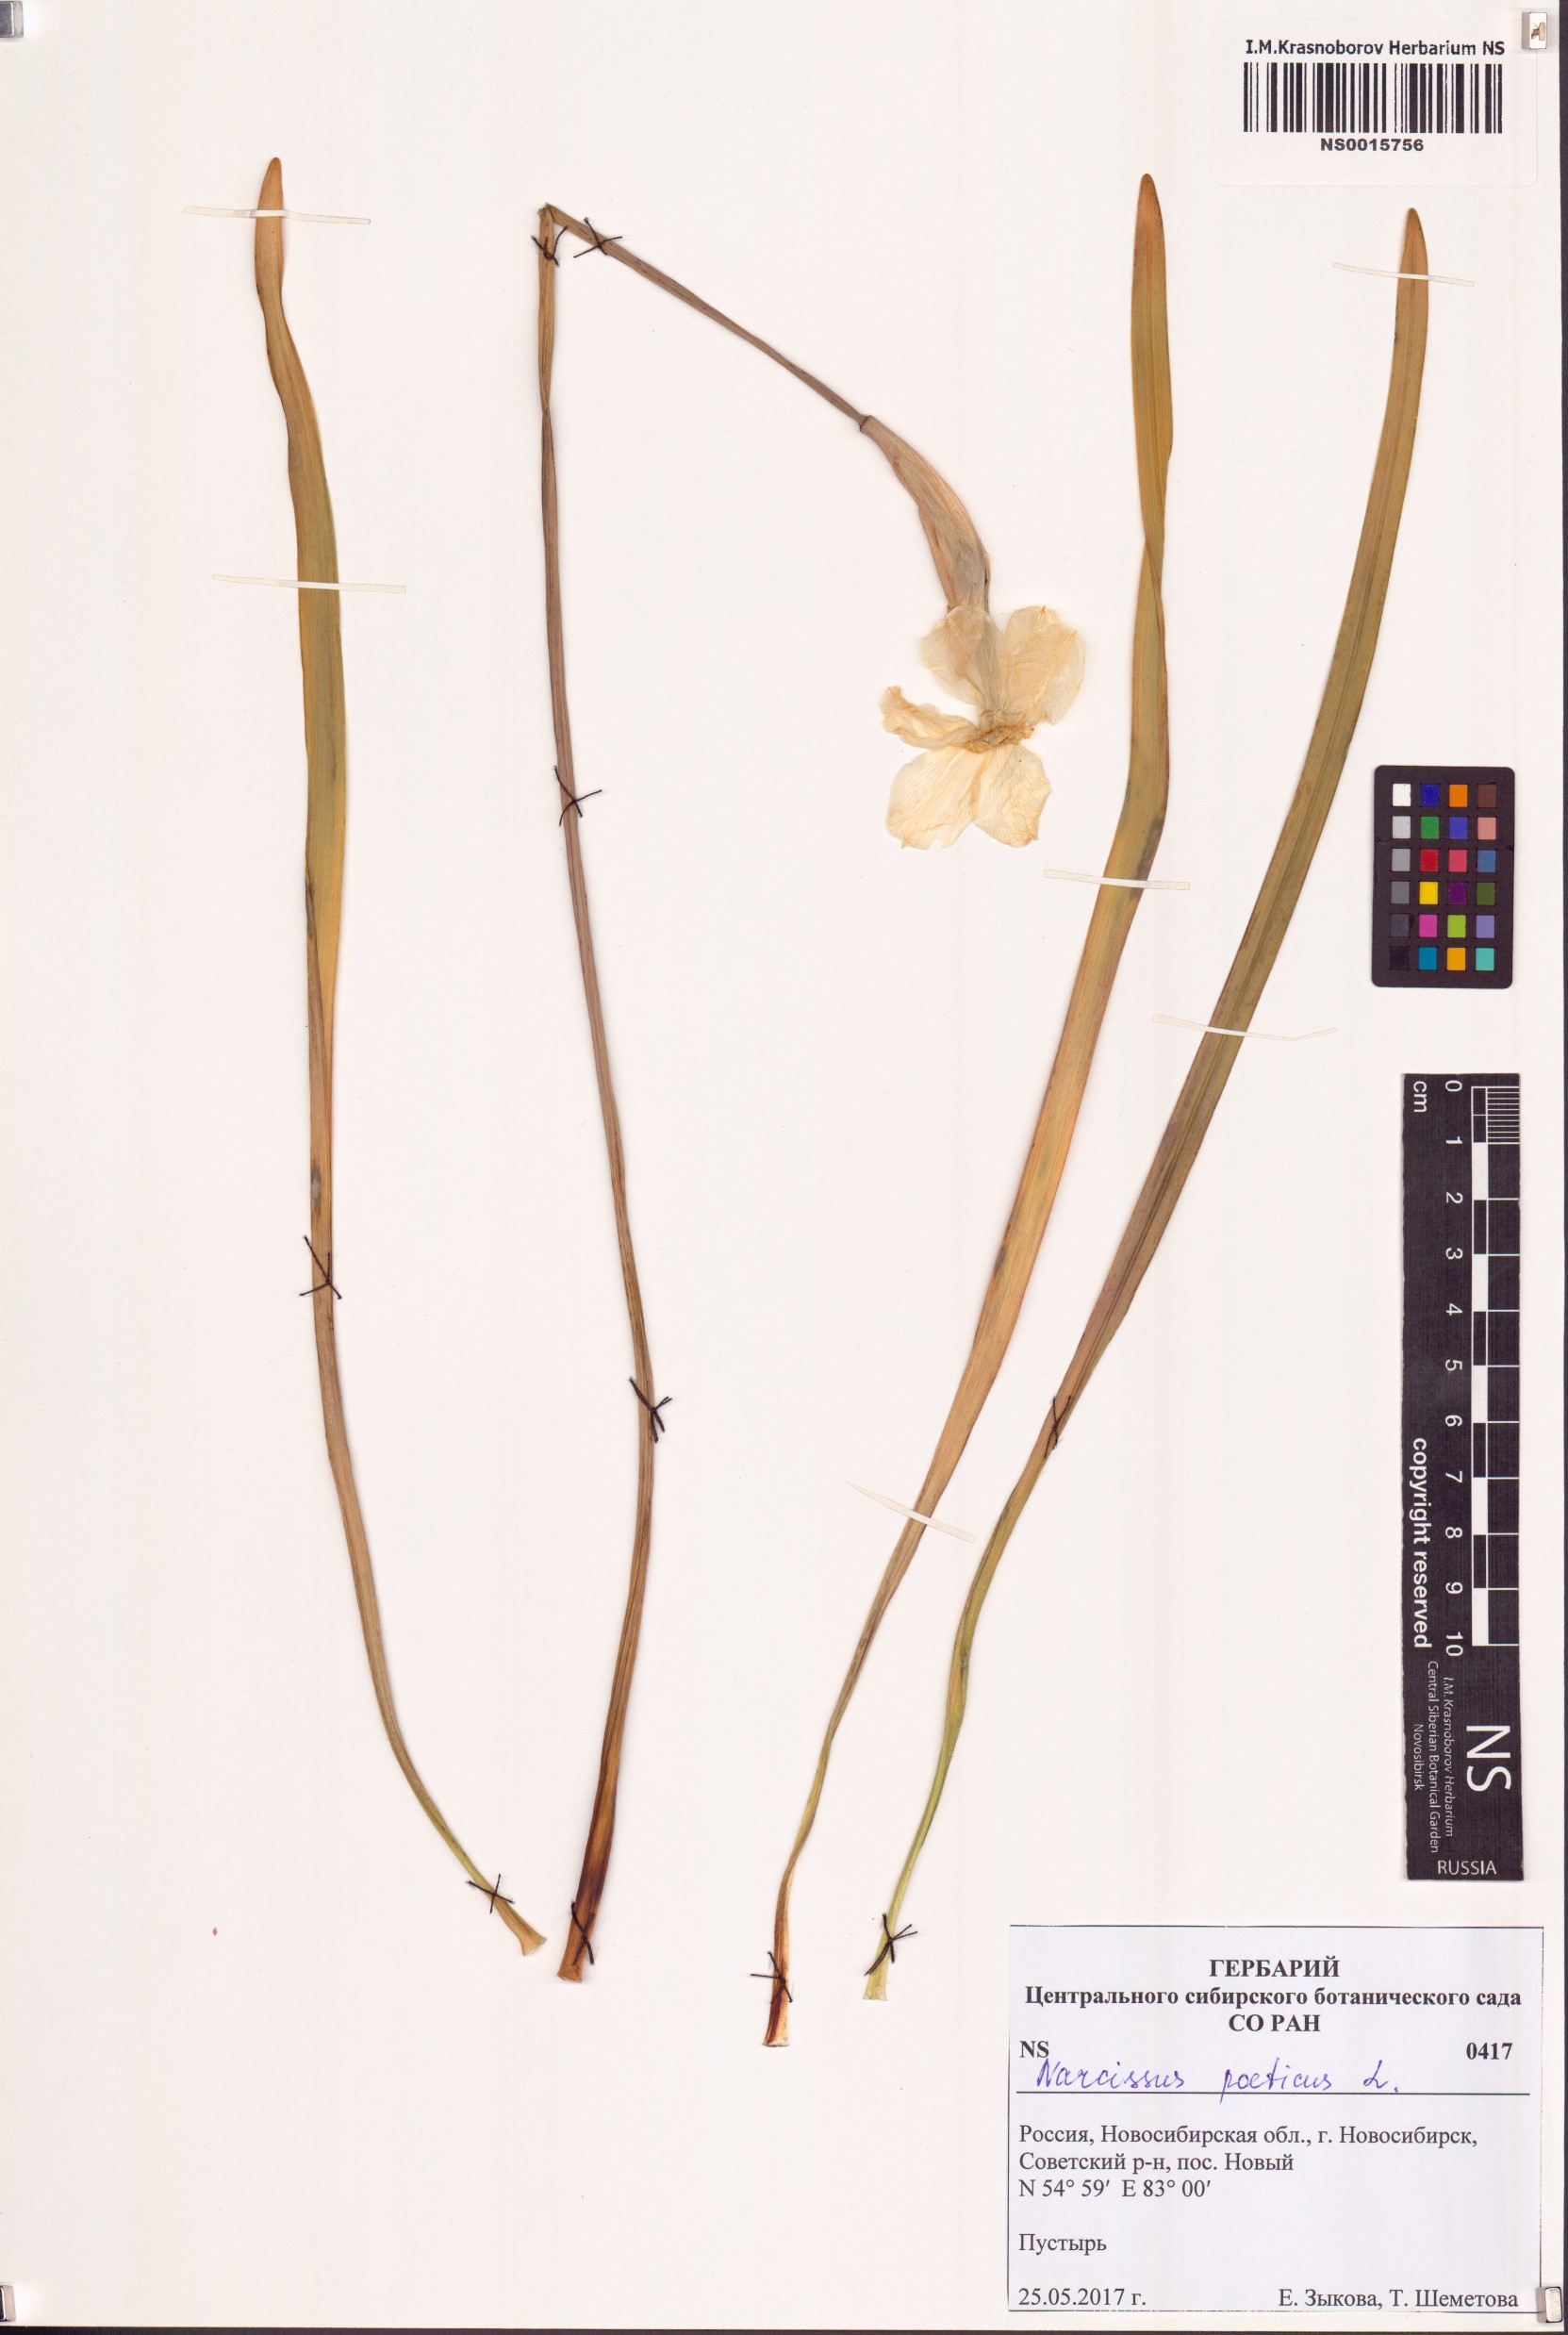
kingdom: Plantae
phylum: Tracheophyta
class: Liliopsida
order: Asparagales
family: Amaryllidaceae
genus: Narcissus
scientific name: Narcissus poeticus
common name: Pheasant's-eye daffodil
